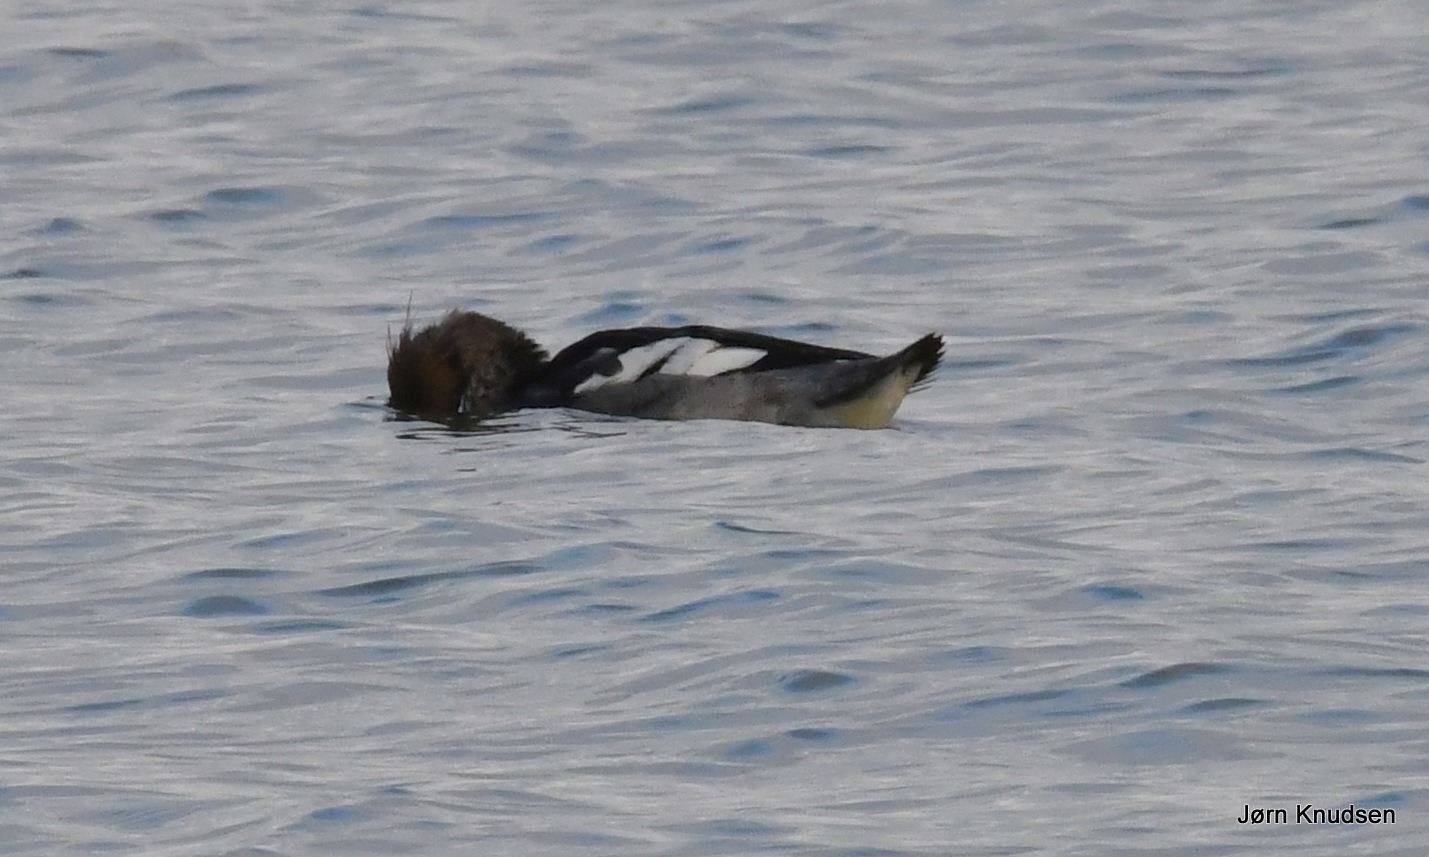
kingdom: Animalia
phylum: Chordata
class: Aves
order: Anseriformes
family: Anatidae
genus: Mergus
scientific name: Mergus serrator
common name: Toppet skallesluger
